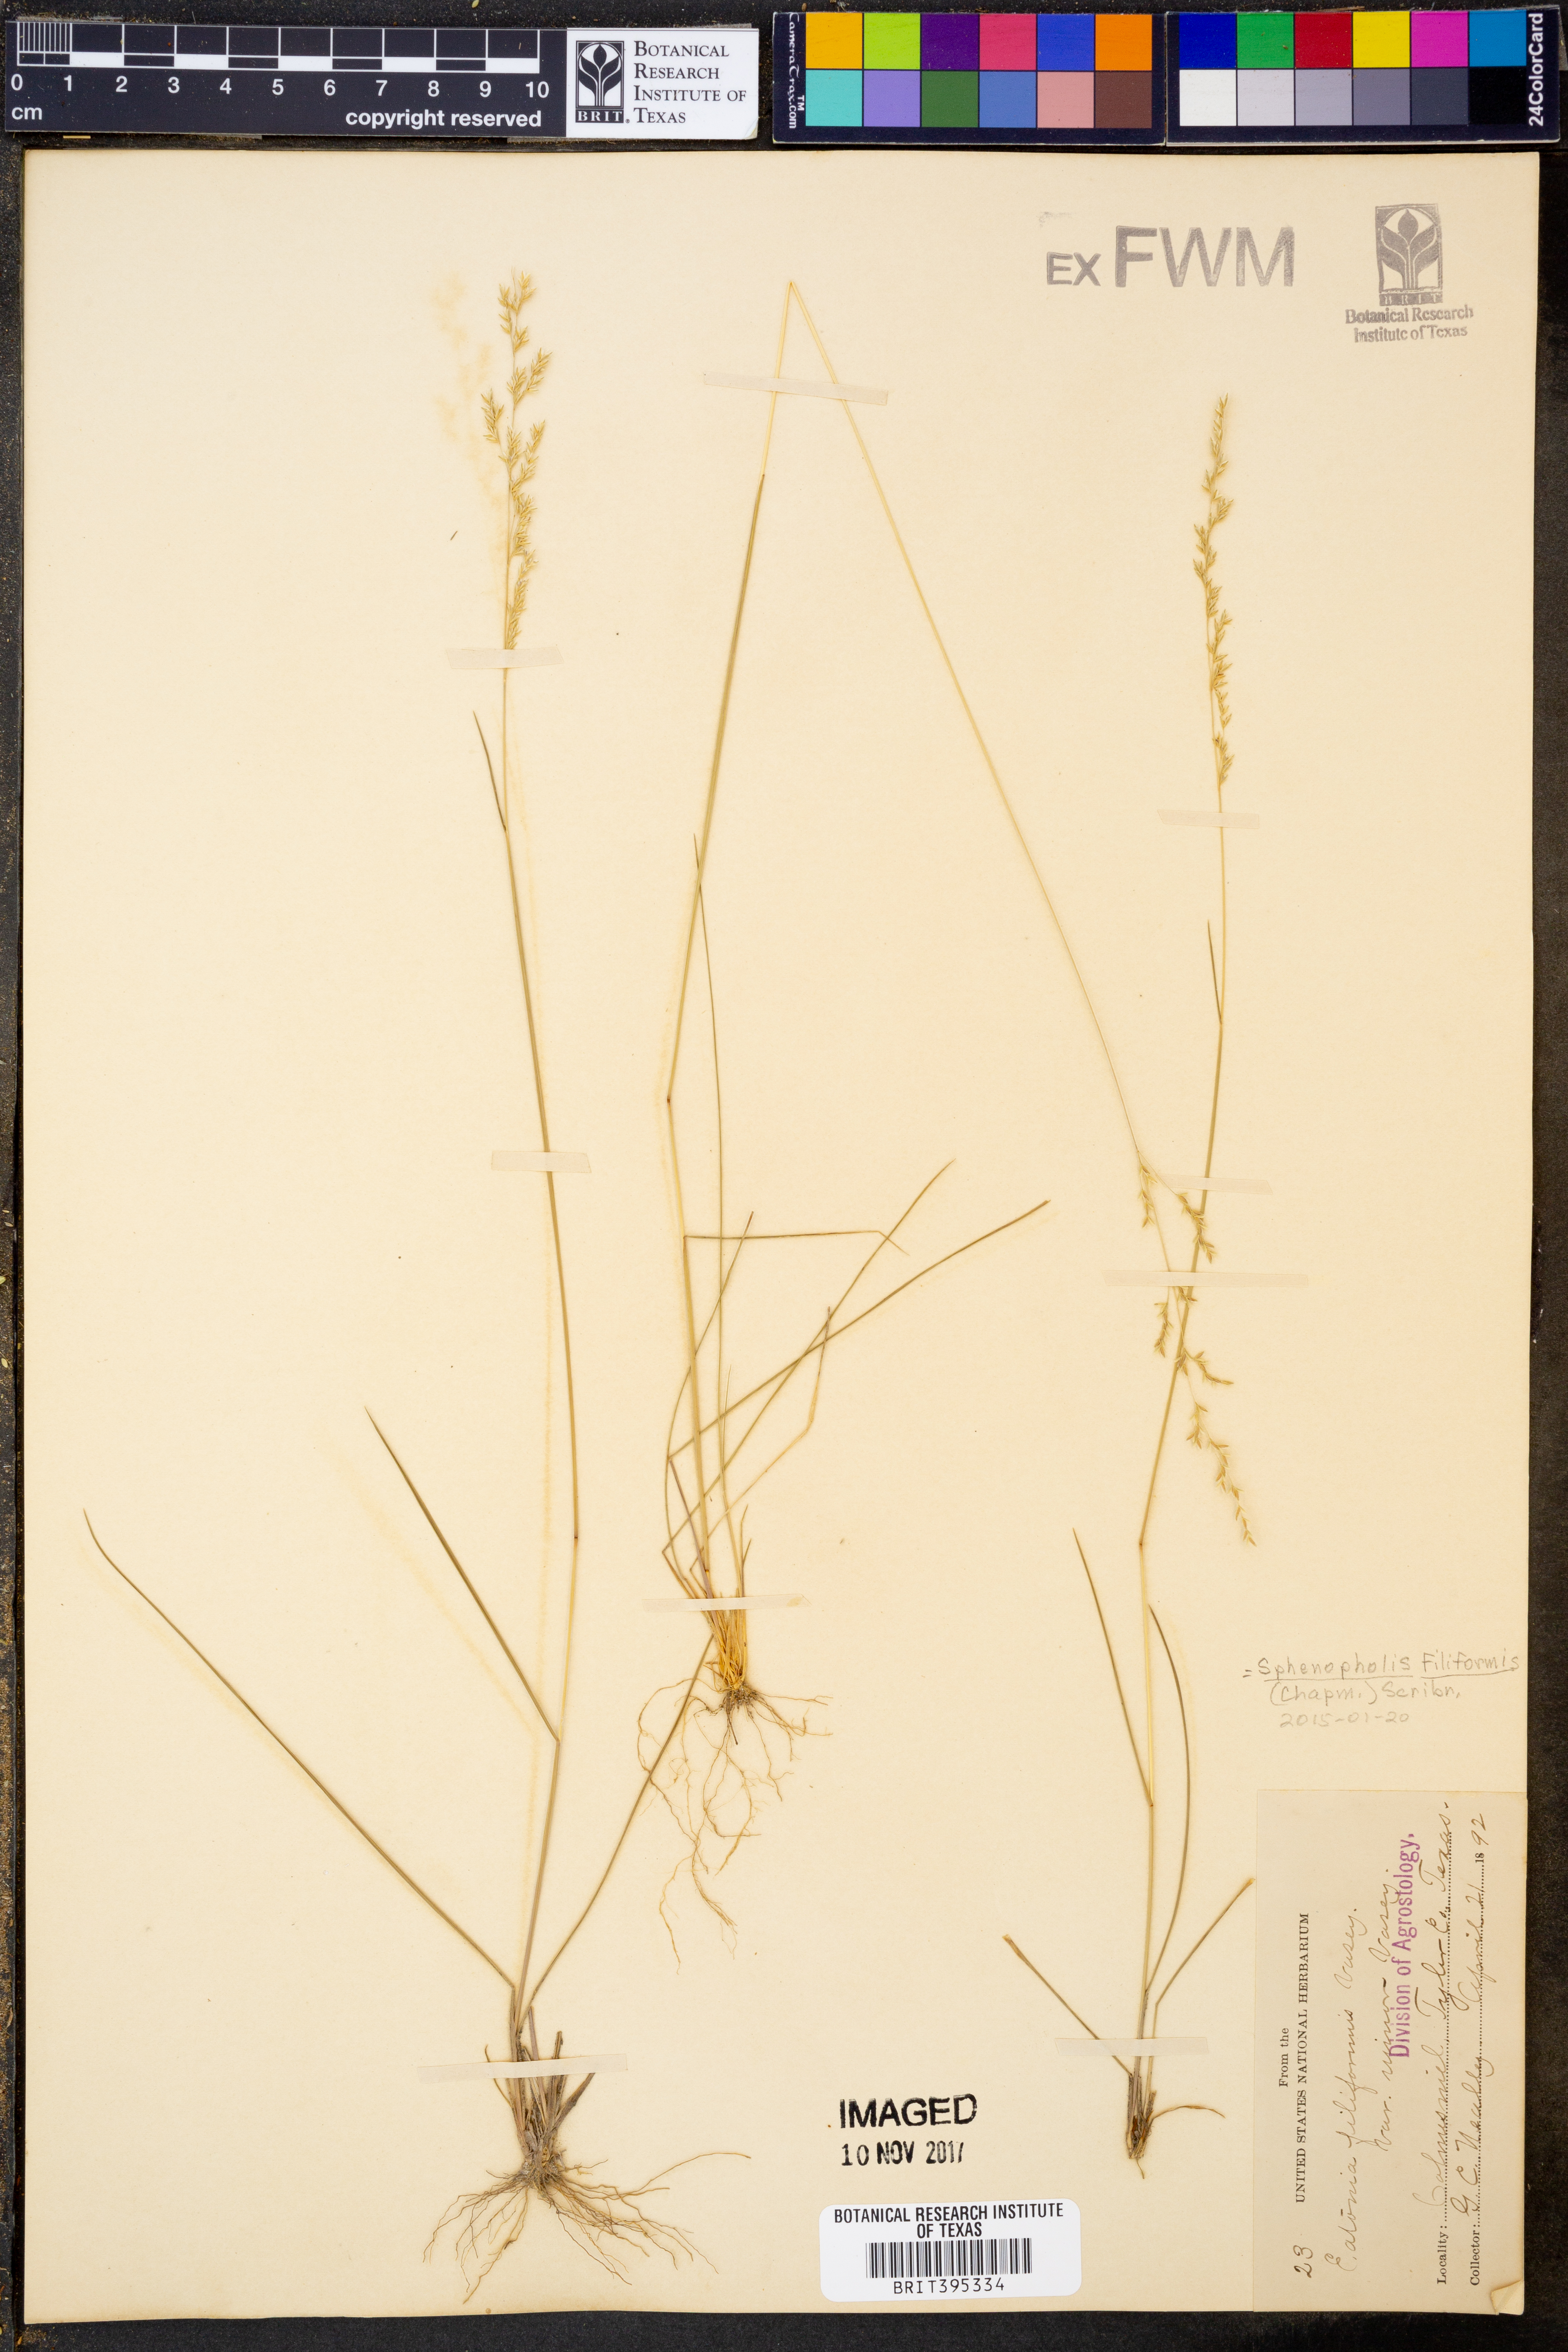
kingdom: Plantae
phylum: Tracheophyta
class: Liliopsida
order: Poales
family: Poaceae
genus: Sphenopholis
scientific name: Sphenopholis filiformis
